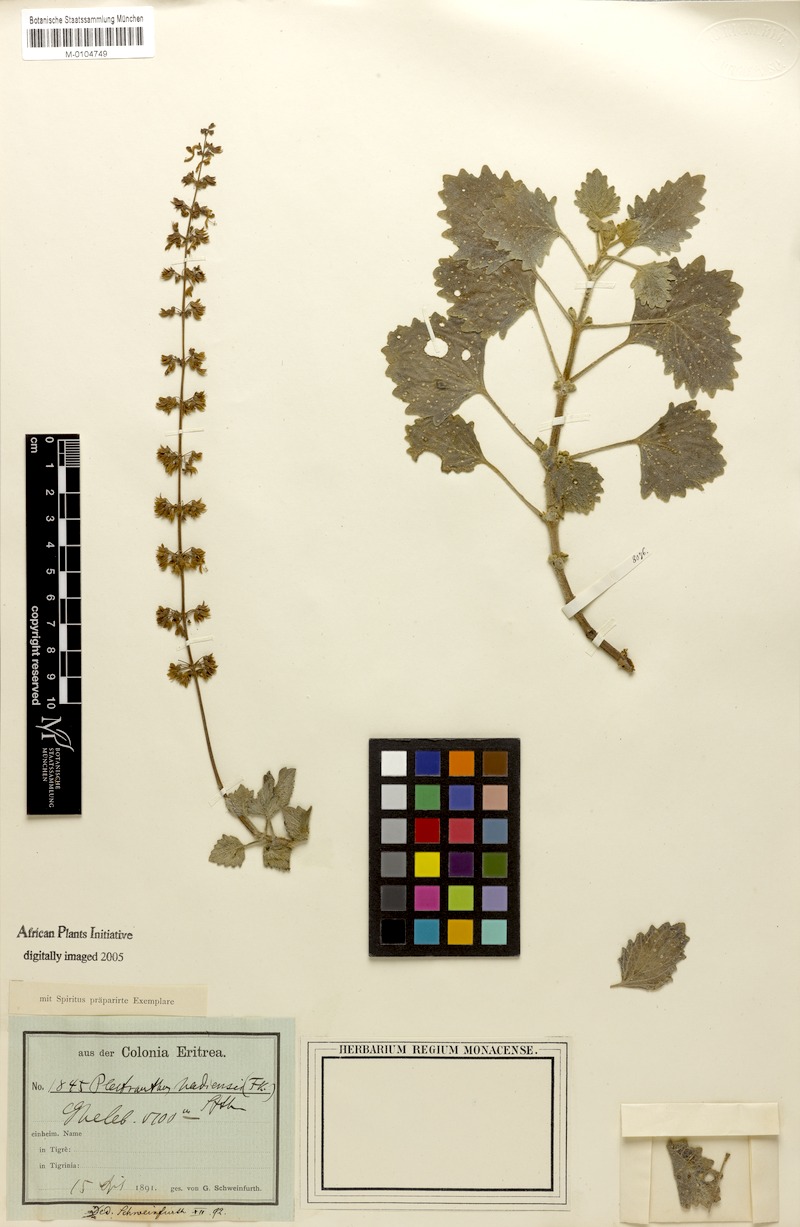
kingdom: Plantae
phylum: Tracheophyta
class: Magnoliopsida
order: Lamiales
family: Lamiaceae
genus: Coleus
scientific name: Coleus hadiensis
